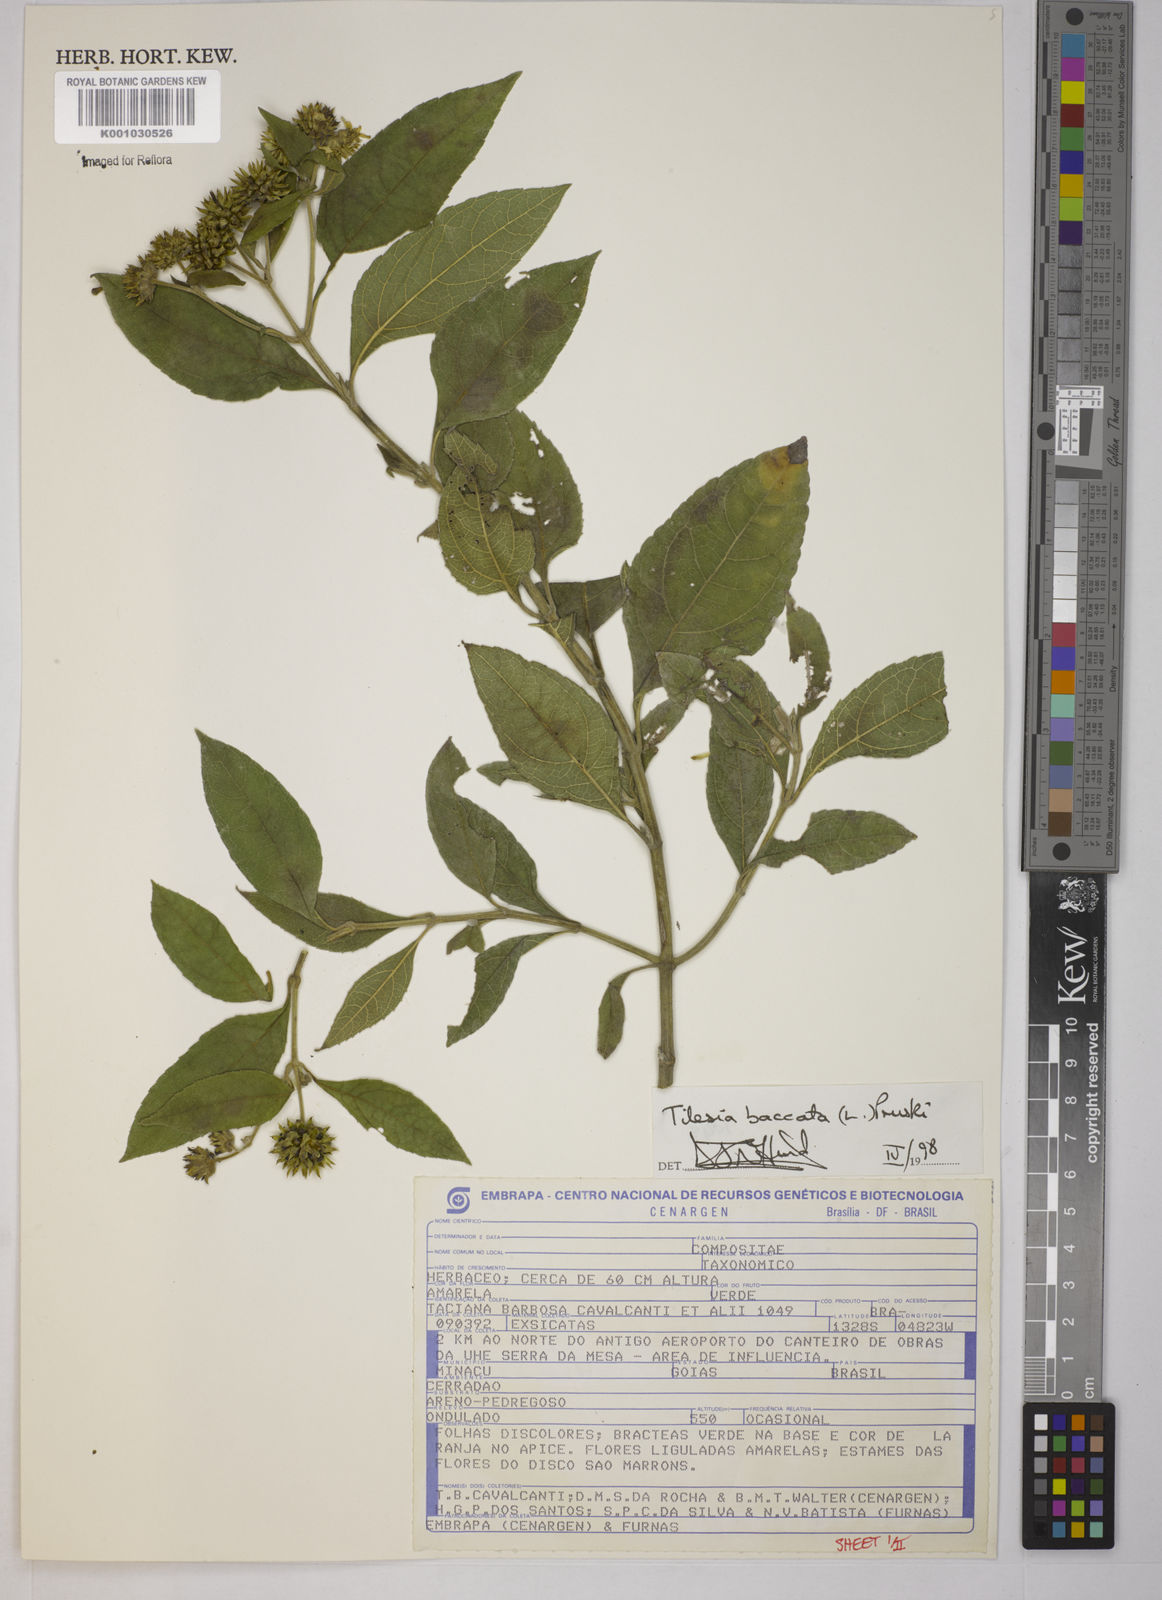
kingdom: Plantae
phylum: Tracheophyta
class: Magnoliopsida
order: Asterales
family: Asteraceae
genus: Tilesia
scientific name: Tilesia baccata
